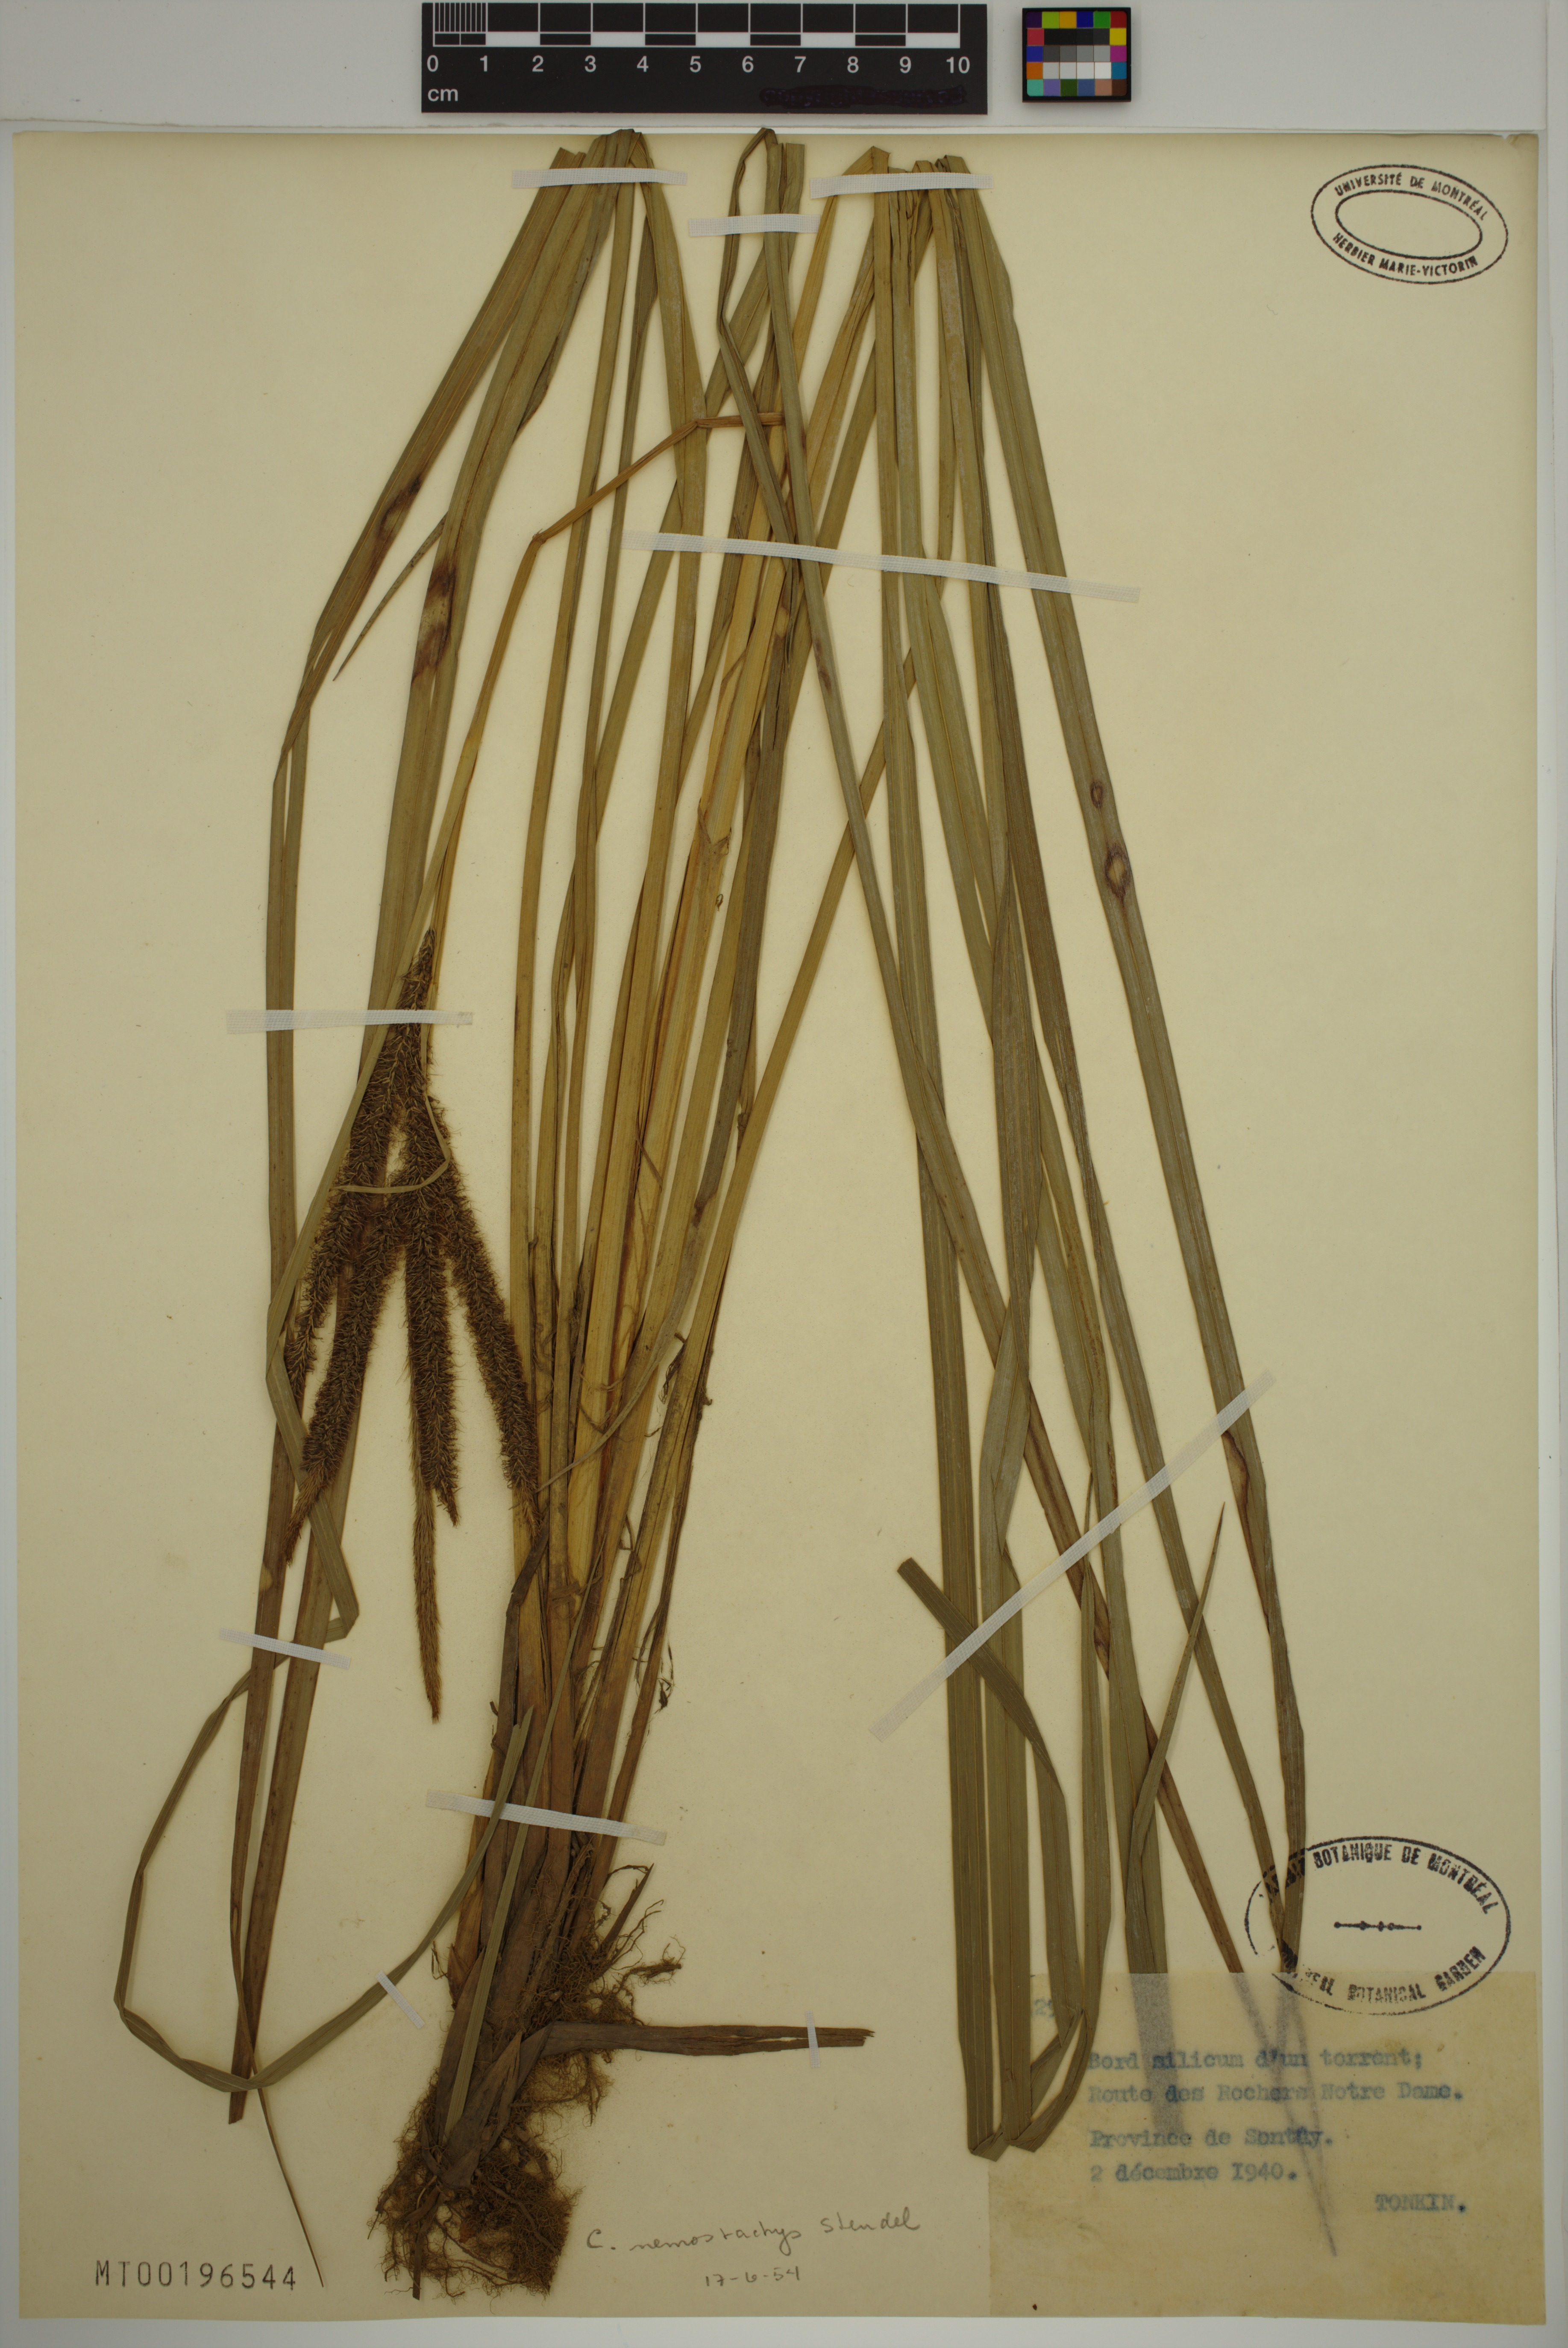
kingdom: Plantae
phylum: Tracheophyta
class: Liliopsida
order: Poales
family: Cyperaceae
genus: Carex
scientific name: Carex nemostachys
